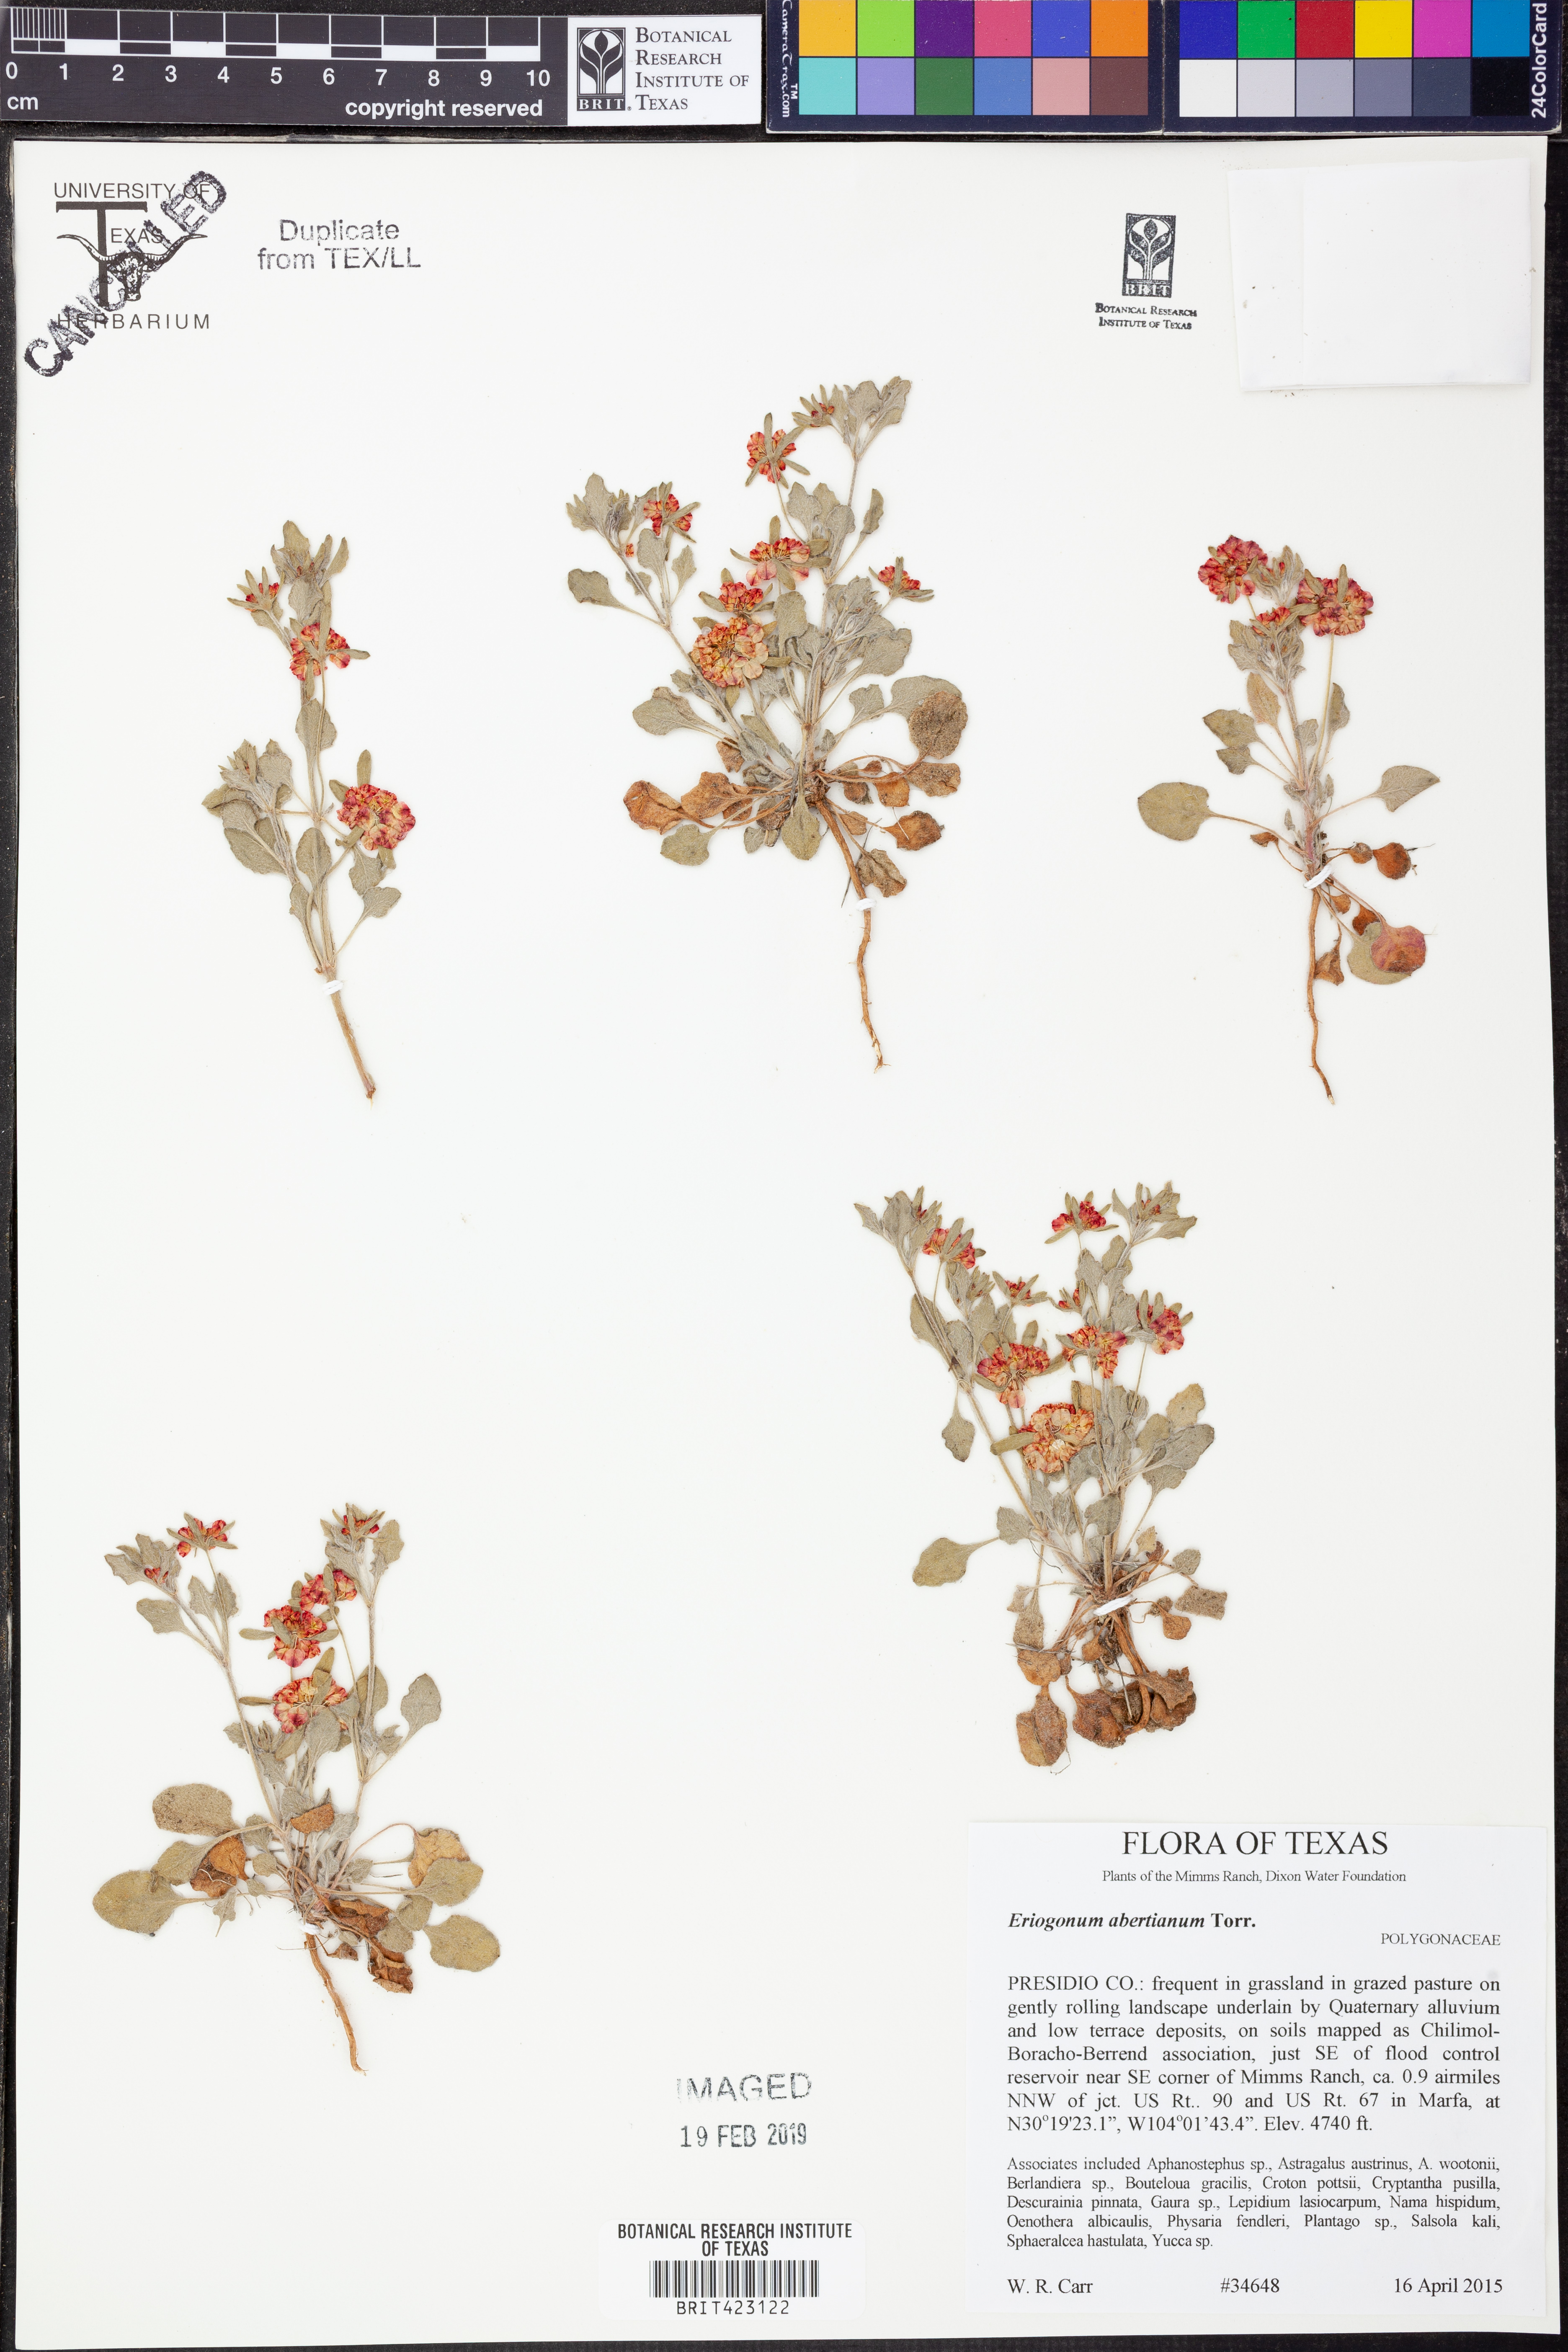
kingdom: Plantae
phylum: Tracheophyta
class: Magnoliopsida
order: Caryophyllales
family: Polygonaceae
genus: Eriogonum
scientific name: Eriogonum abertianum
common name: Abert's wild buckwheat
